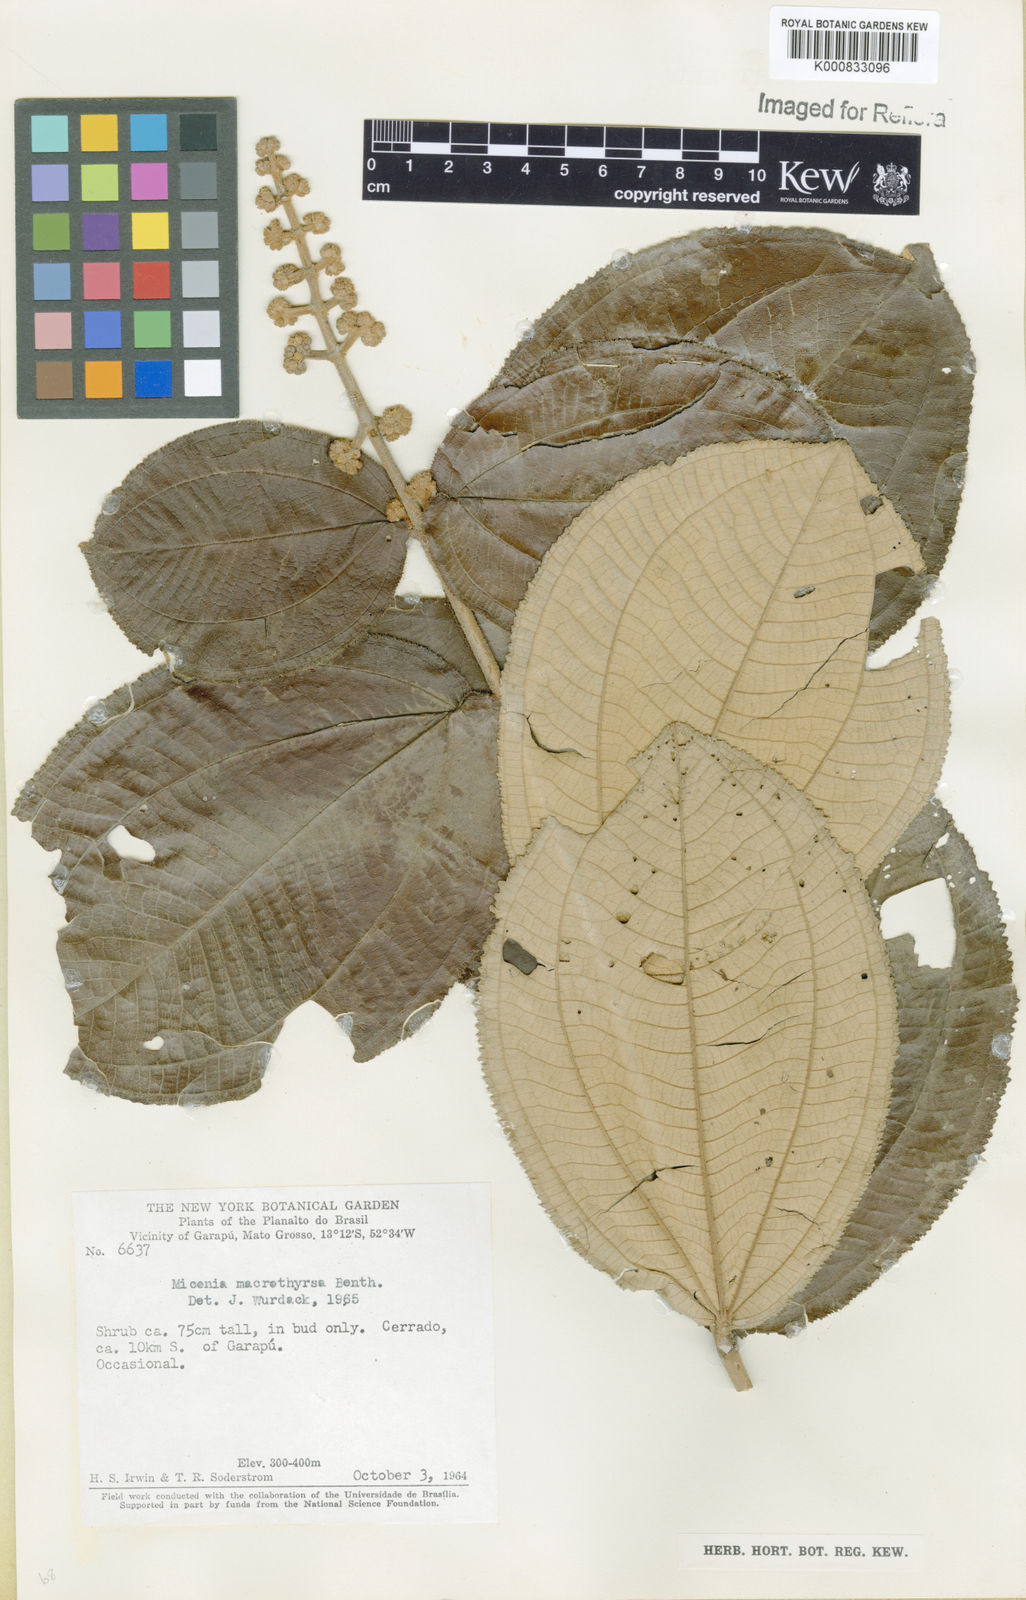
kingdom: Plantae
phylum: Tracheophyta
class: Magnoliopsida
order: Myrtales
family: Melastomataceae
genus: Miconia
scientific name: Miconia macrothyrsa
